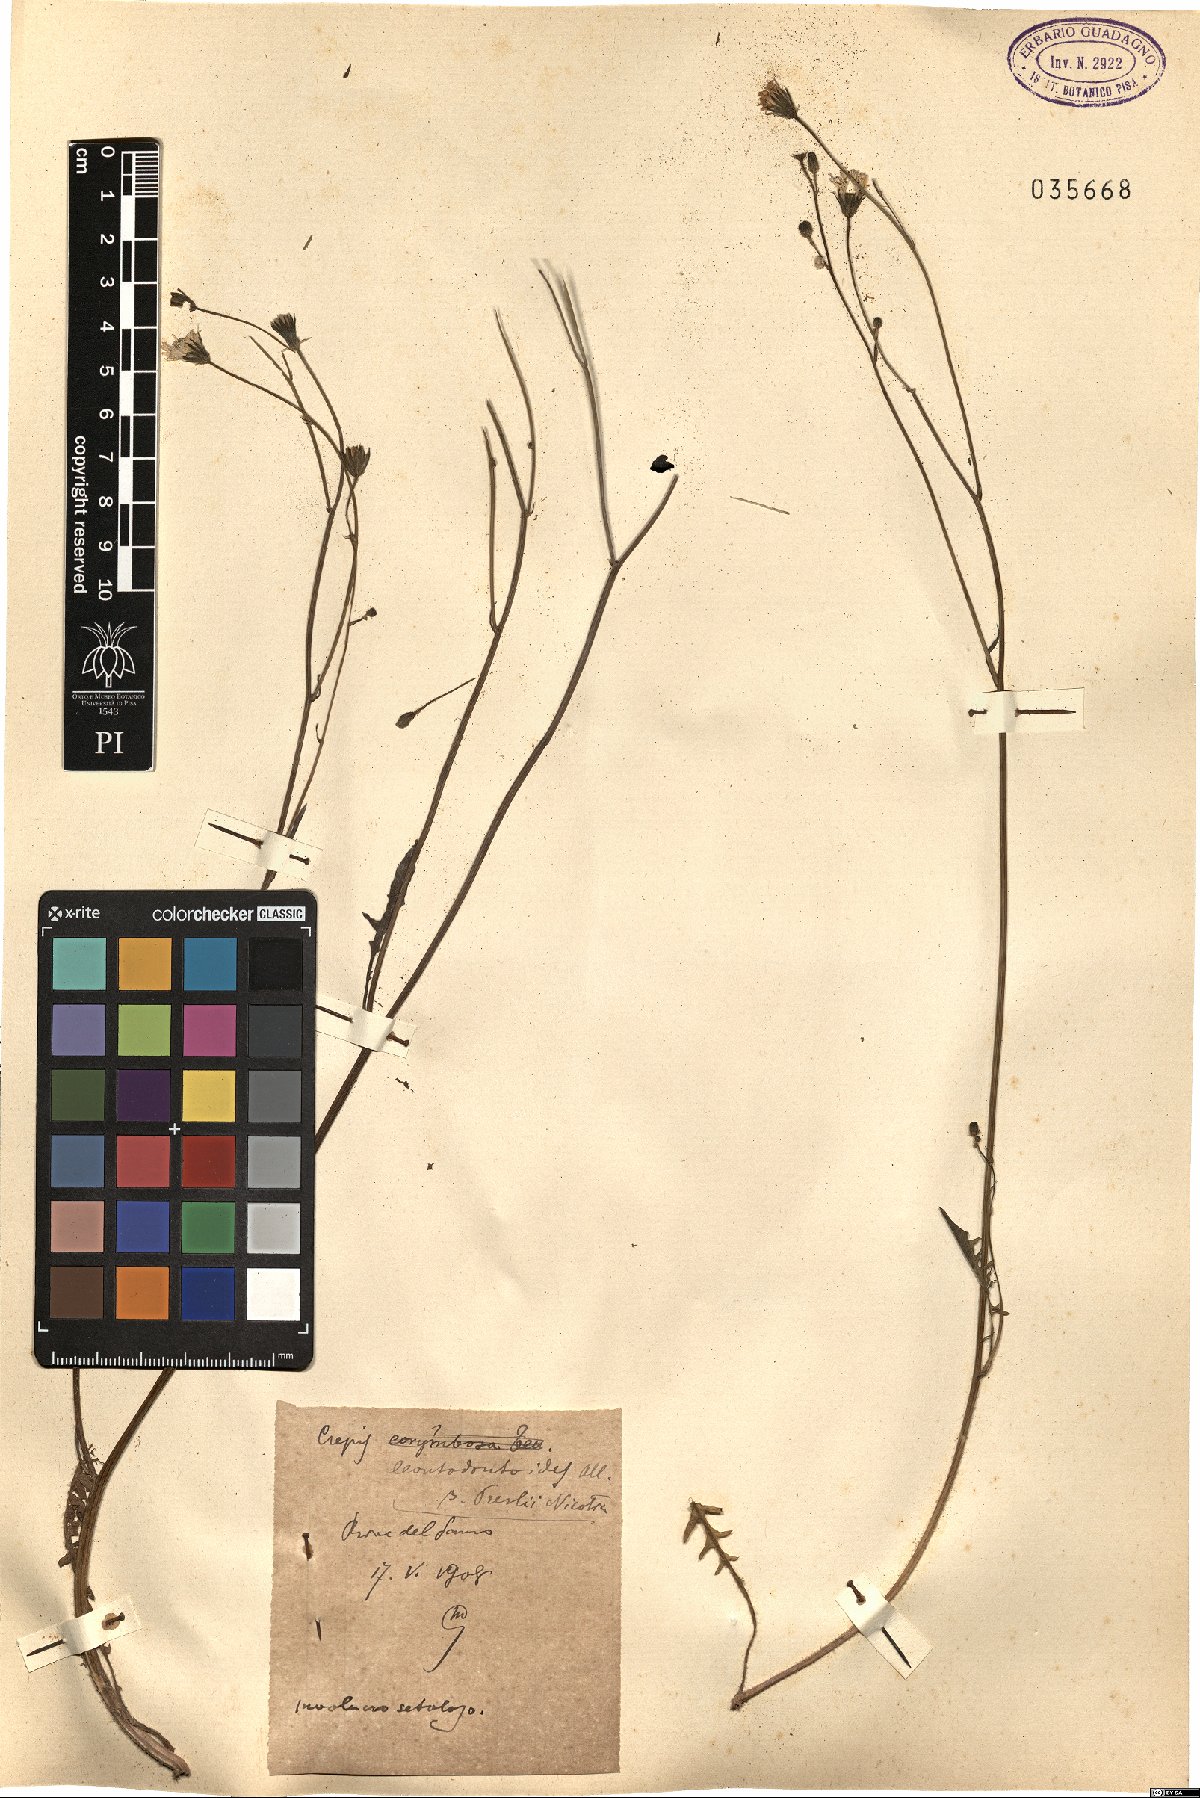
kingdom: Plantae
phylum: Tracheophyta
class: Magnoliopsida
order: Asterales
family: Asteraceae
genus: Crepis
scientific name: Crepis leontodontoides
